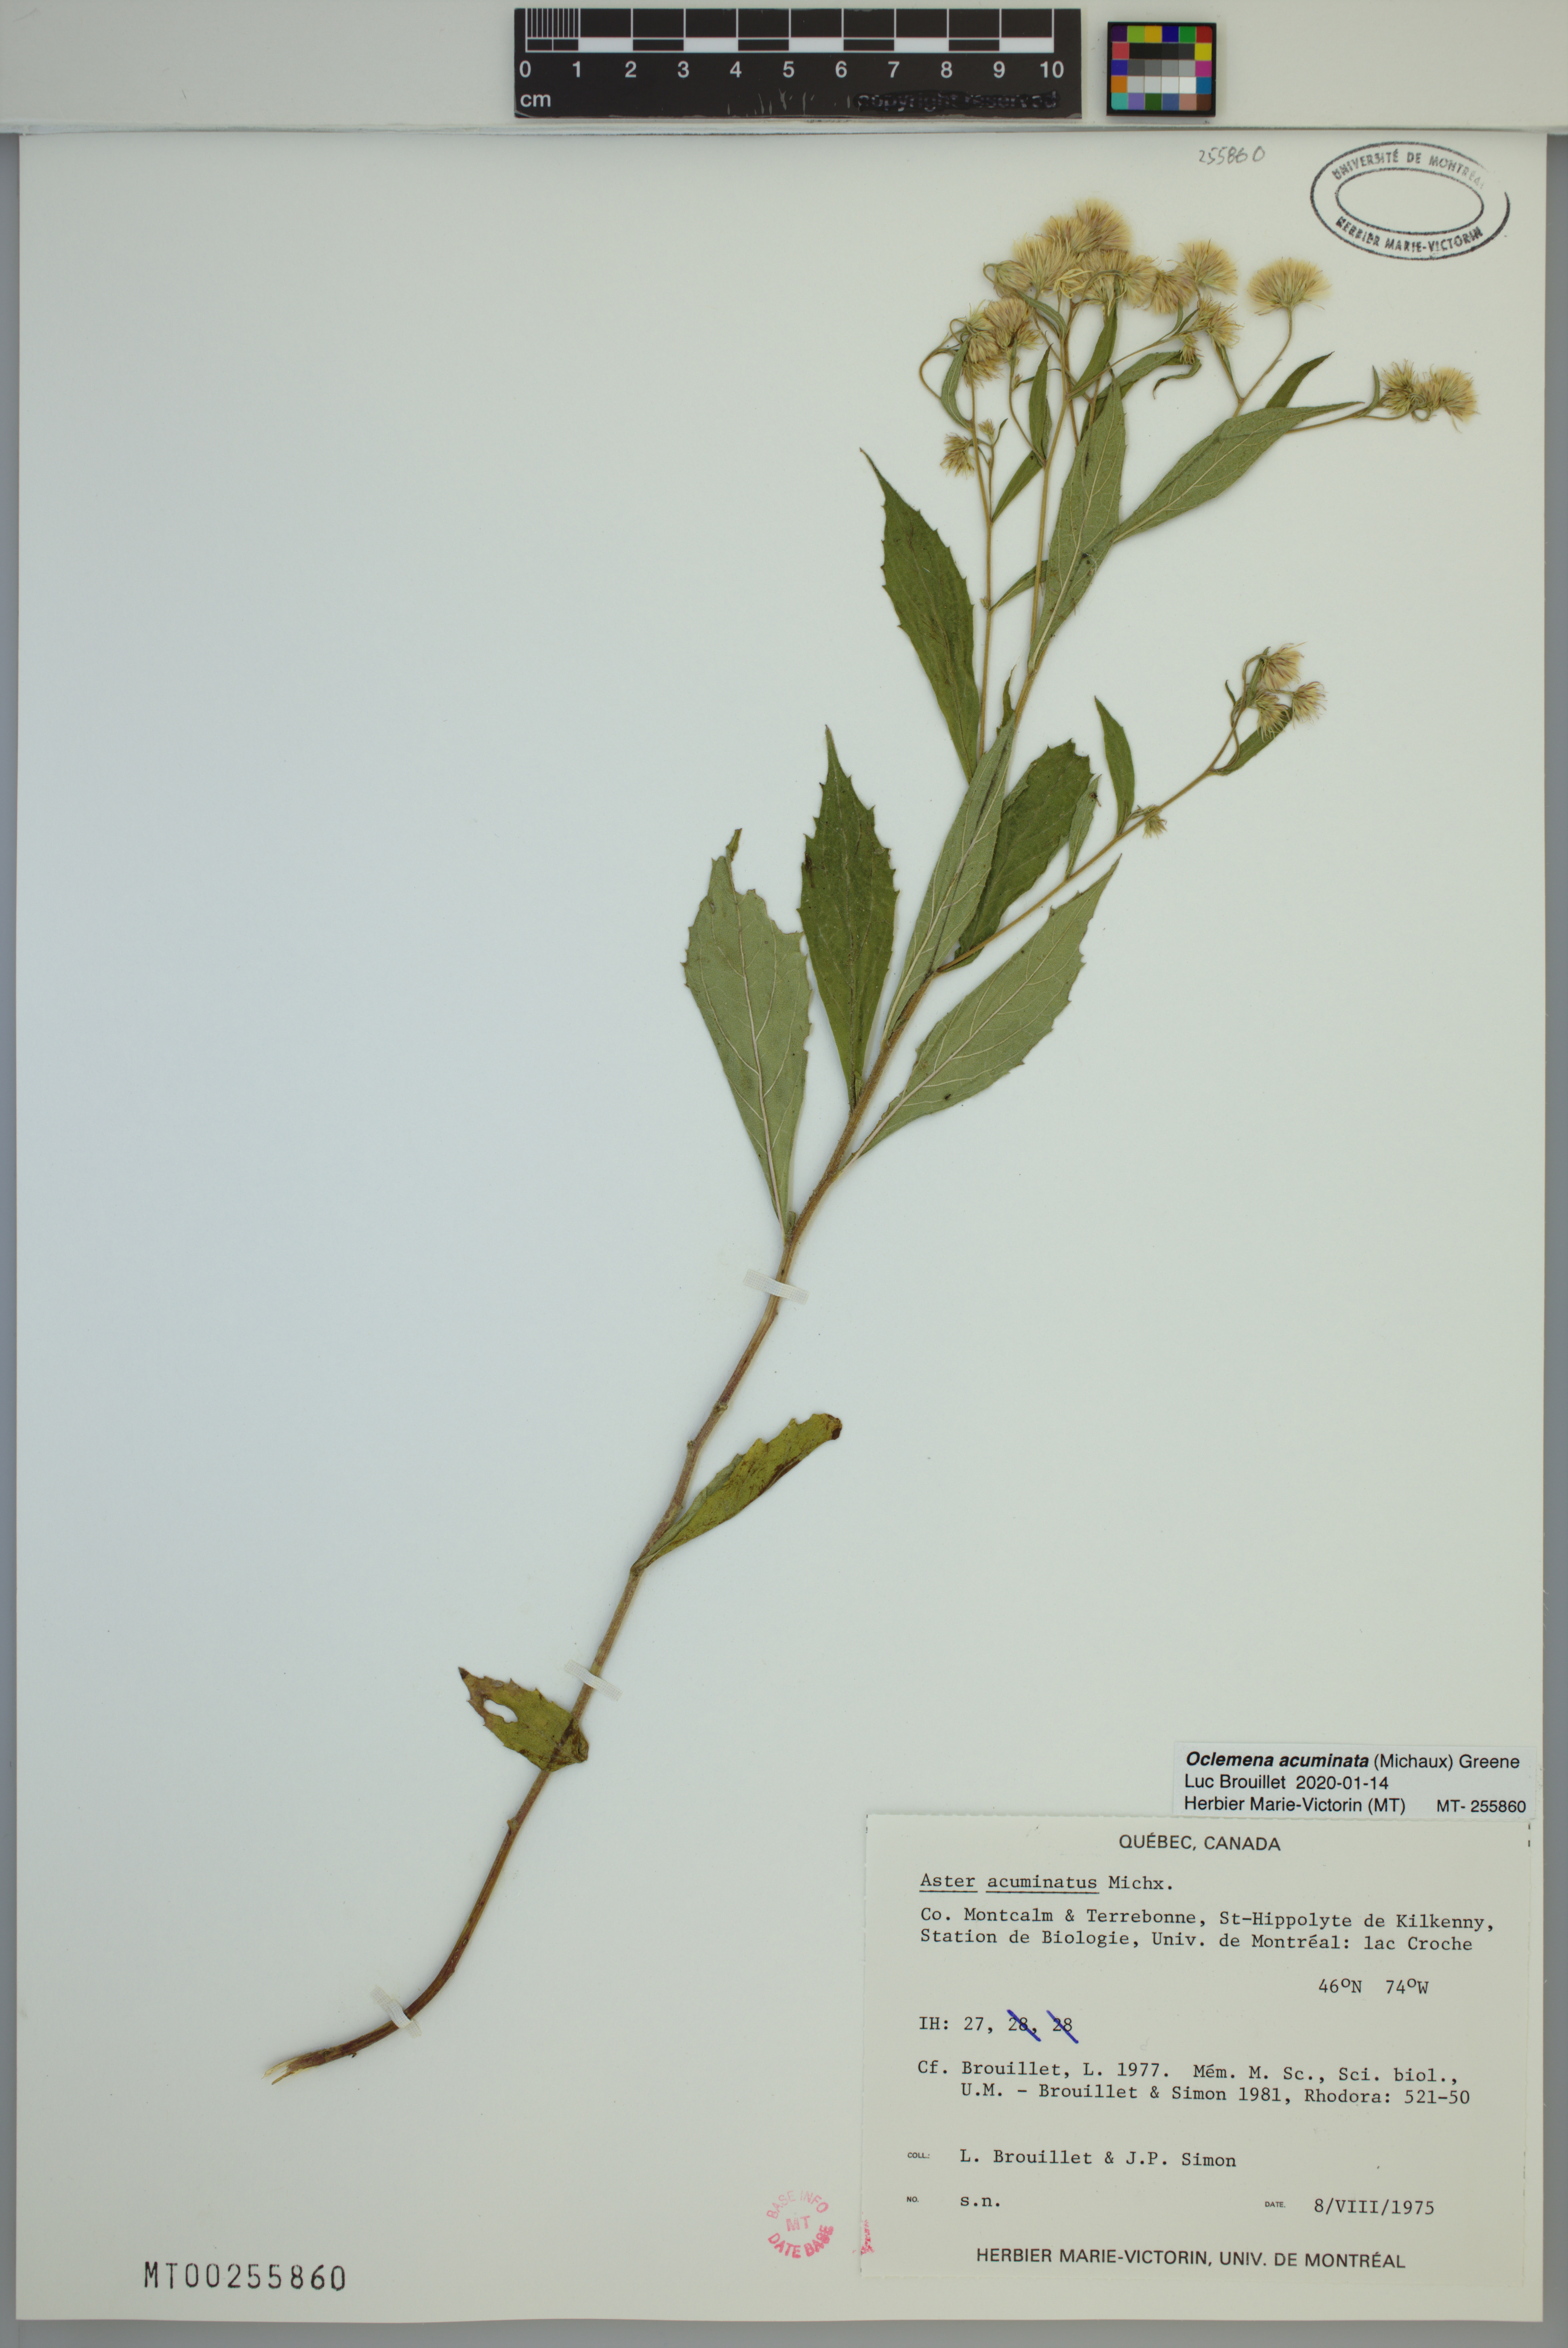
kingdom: Plantae
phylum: Tracheophyta
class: Magnoliopsida
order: Asterales
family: Asteraceae
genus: Oclemena
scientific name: Oclemena acuminata
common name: Mountain aster
